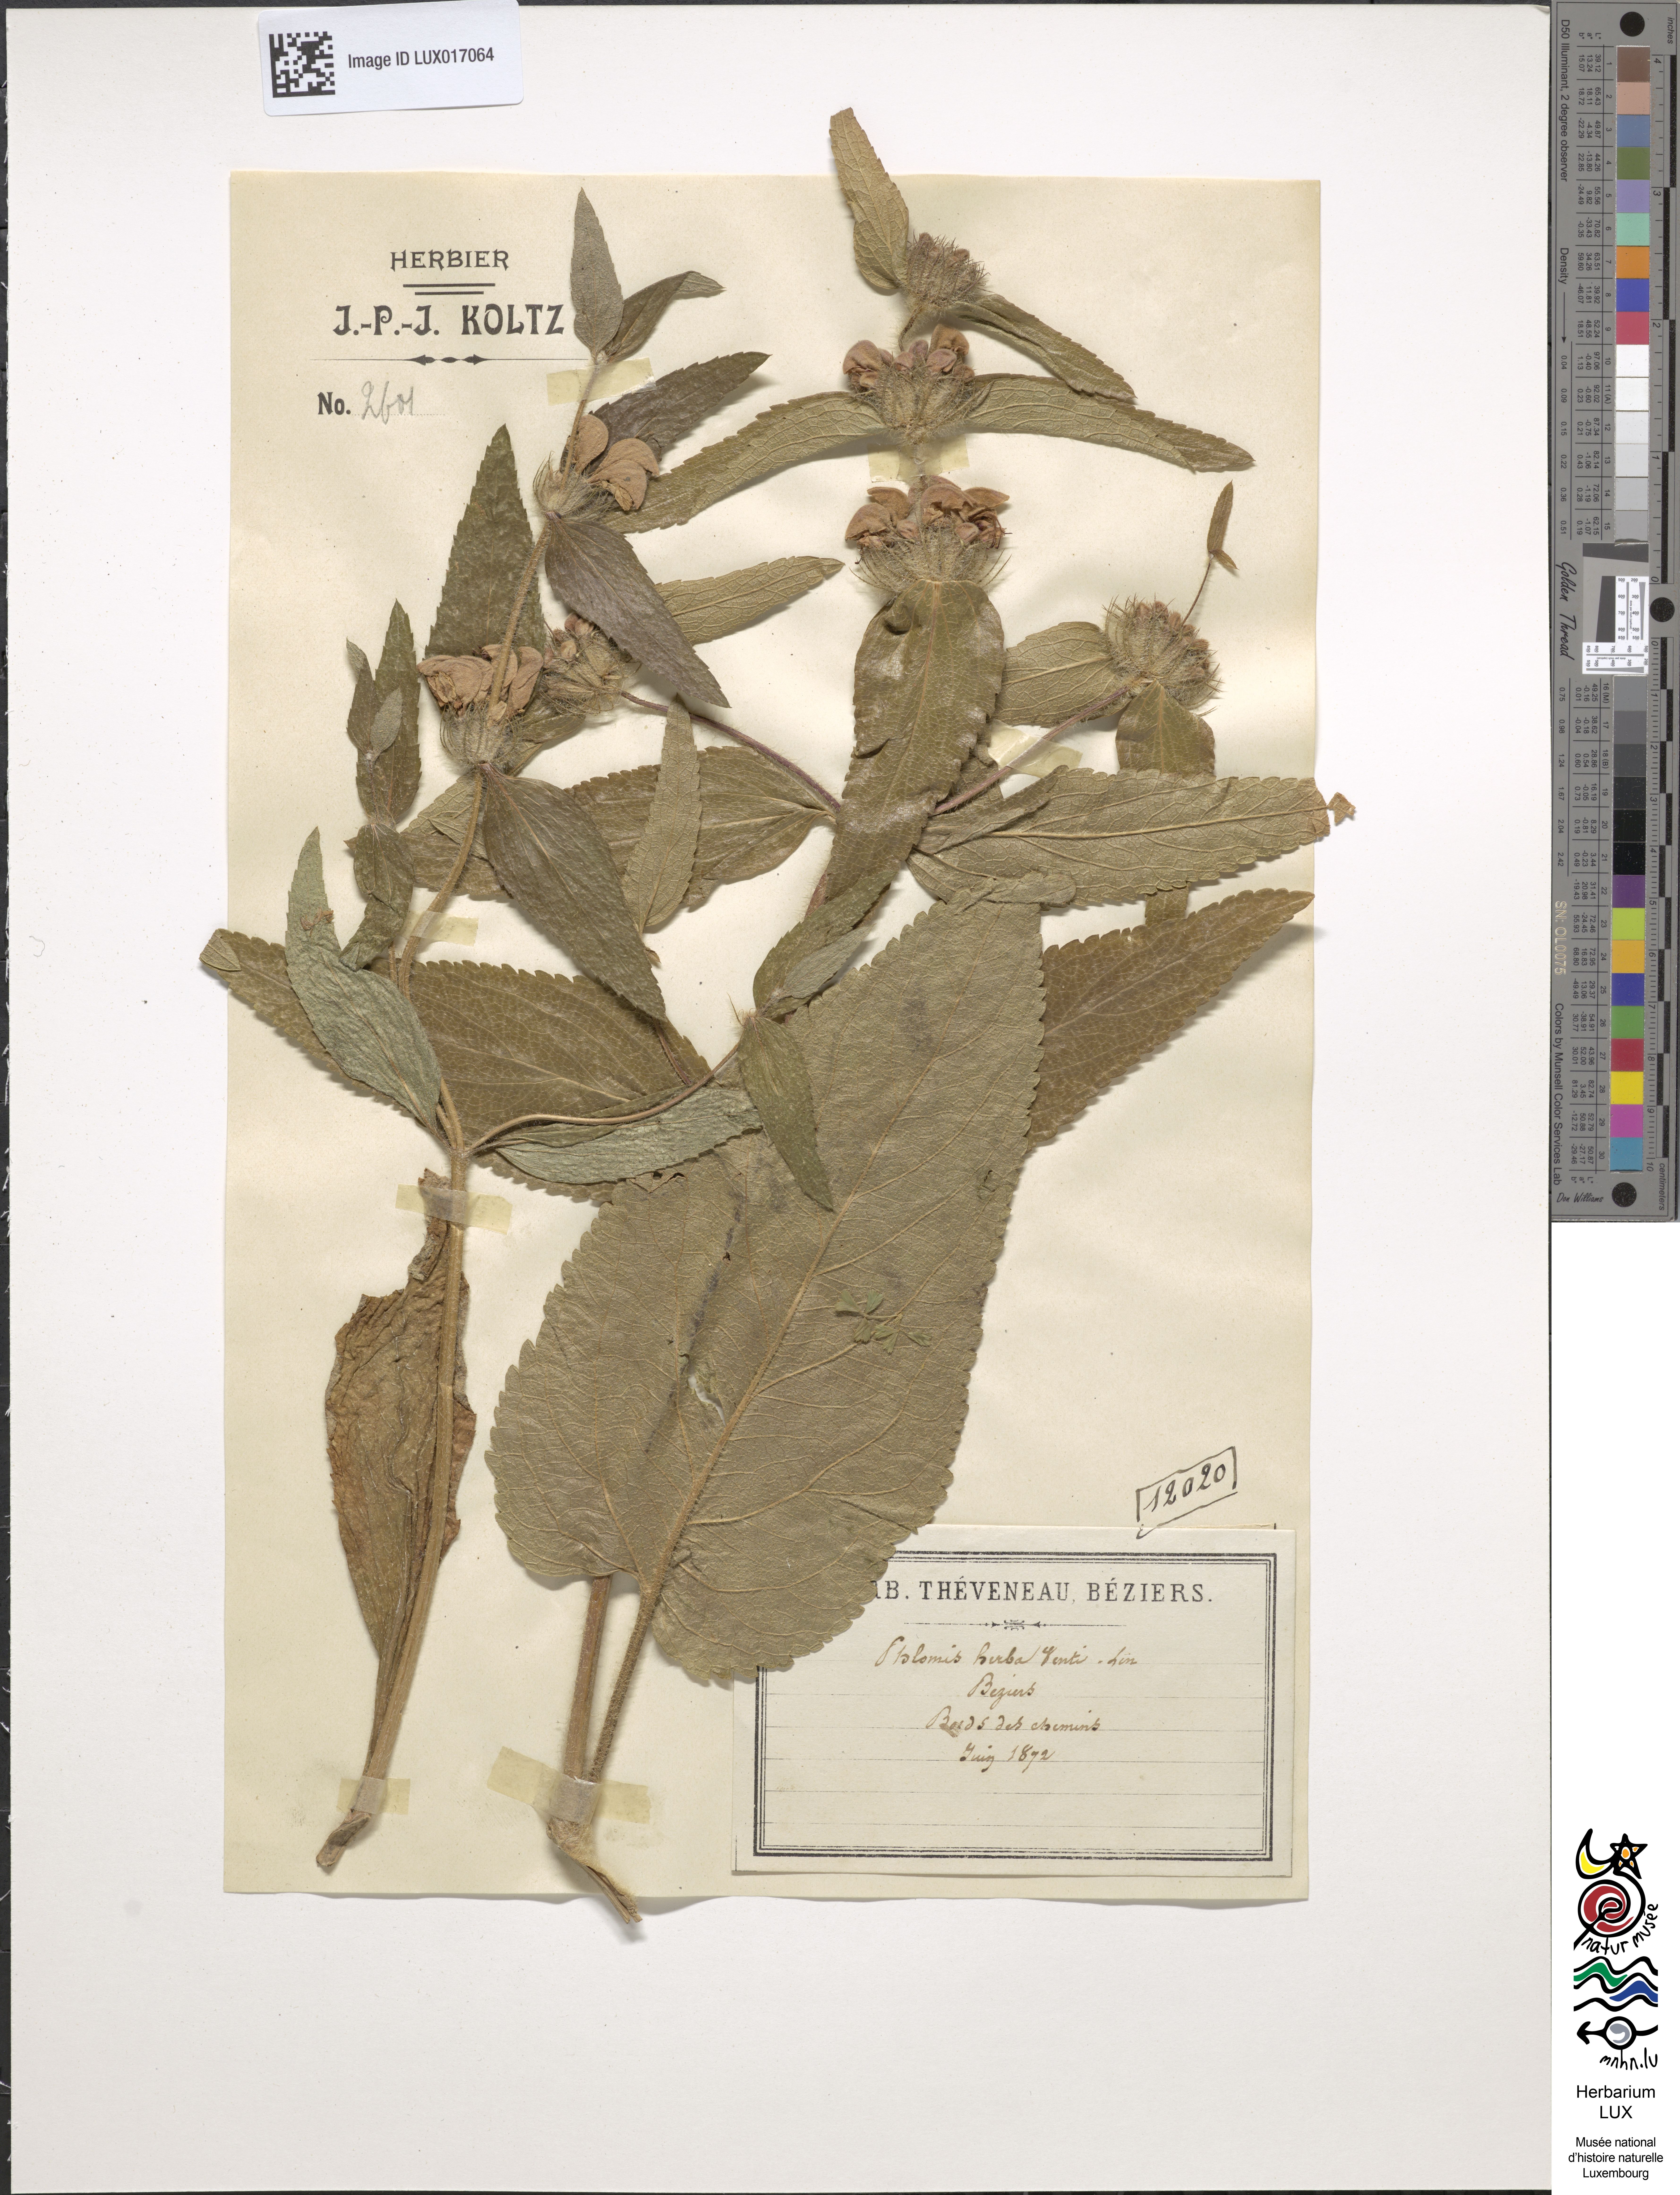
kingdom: Plantae
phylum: Tracheophyta
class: Magnoliopsida
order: Lamiales
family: Lamiaceae
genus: Phlomis
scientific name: Phlomis herba-venti
